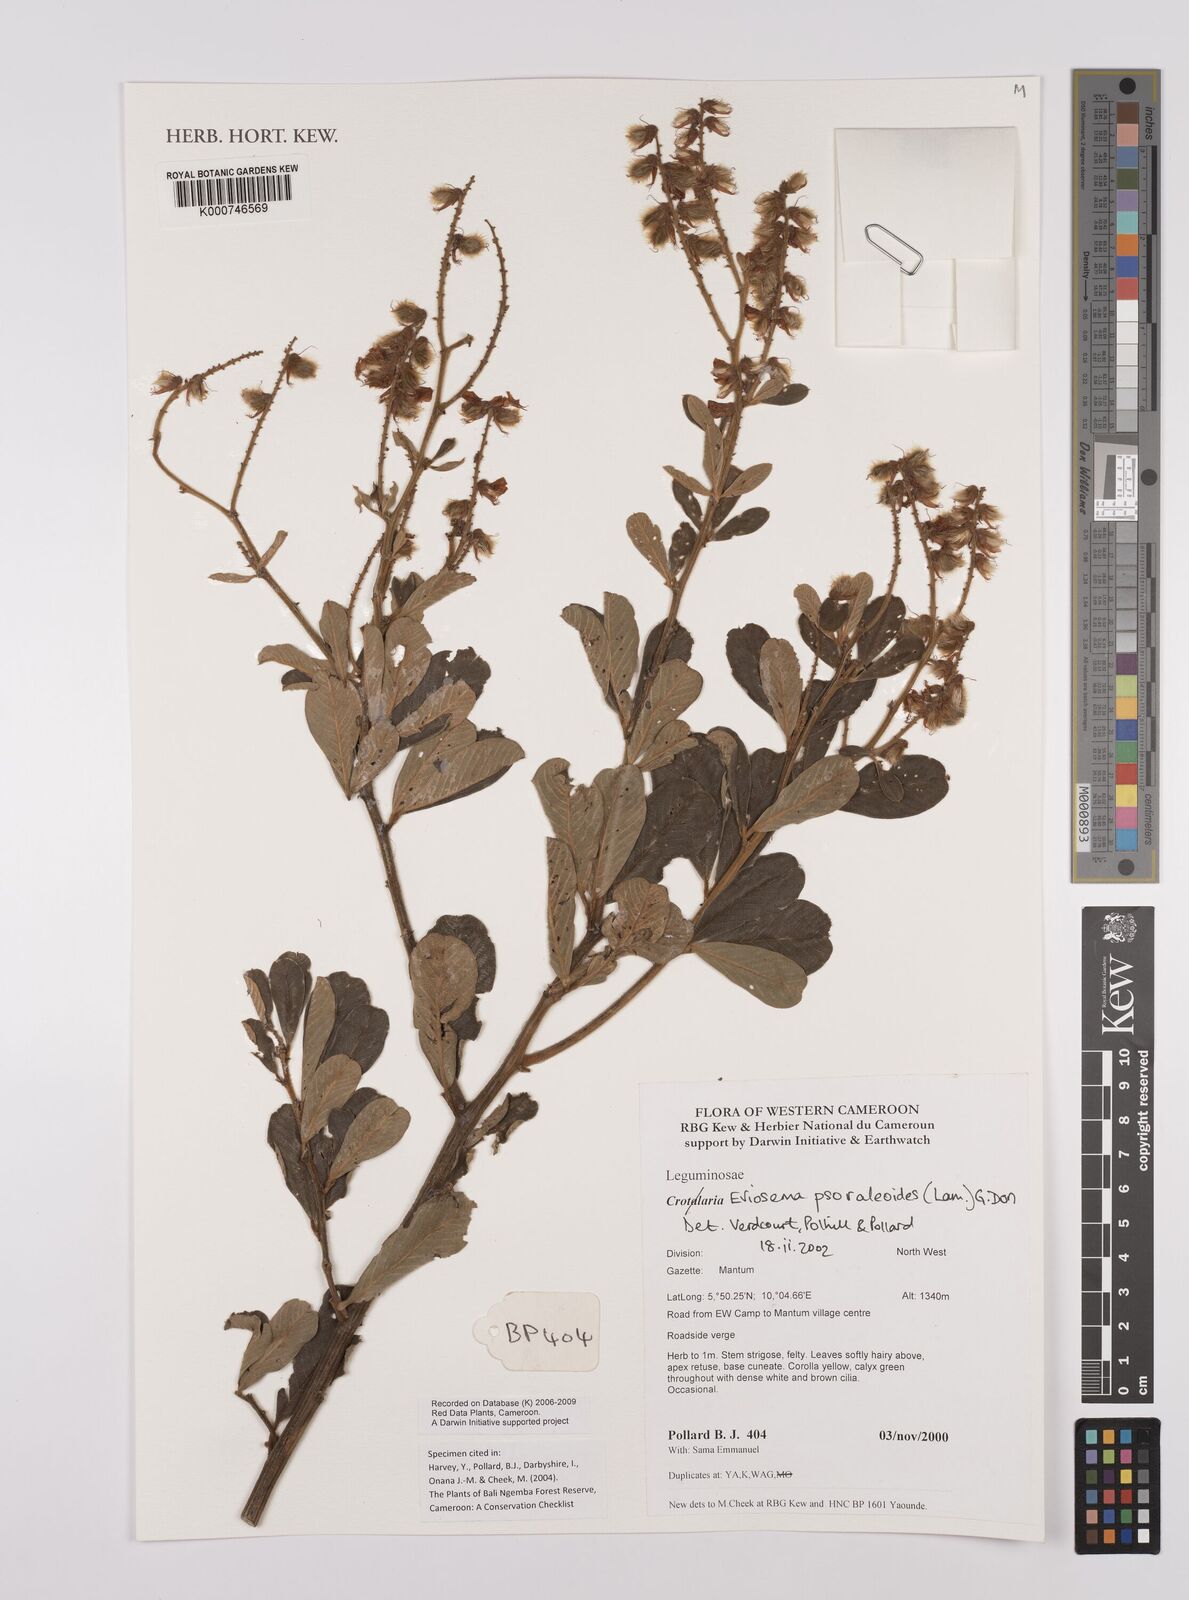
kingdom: Plantae
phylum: Tracheophyta
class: Magnoliopsida
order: Fabales
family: Fabaceae
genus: Eriosema
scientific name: Eriosema psoraleoides
